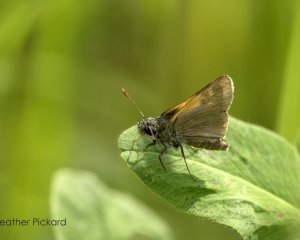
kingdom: Animalia
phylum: Arthropoda
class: Insecta
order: Lepidoptera
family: Hesperiidae
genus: Polites
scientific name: Polites themistocles
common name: Tawny-edged Skipper
